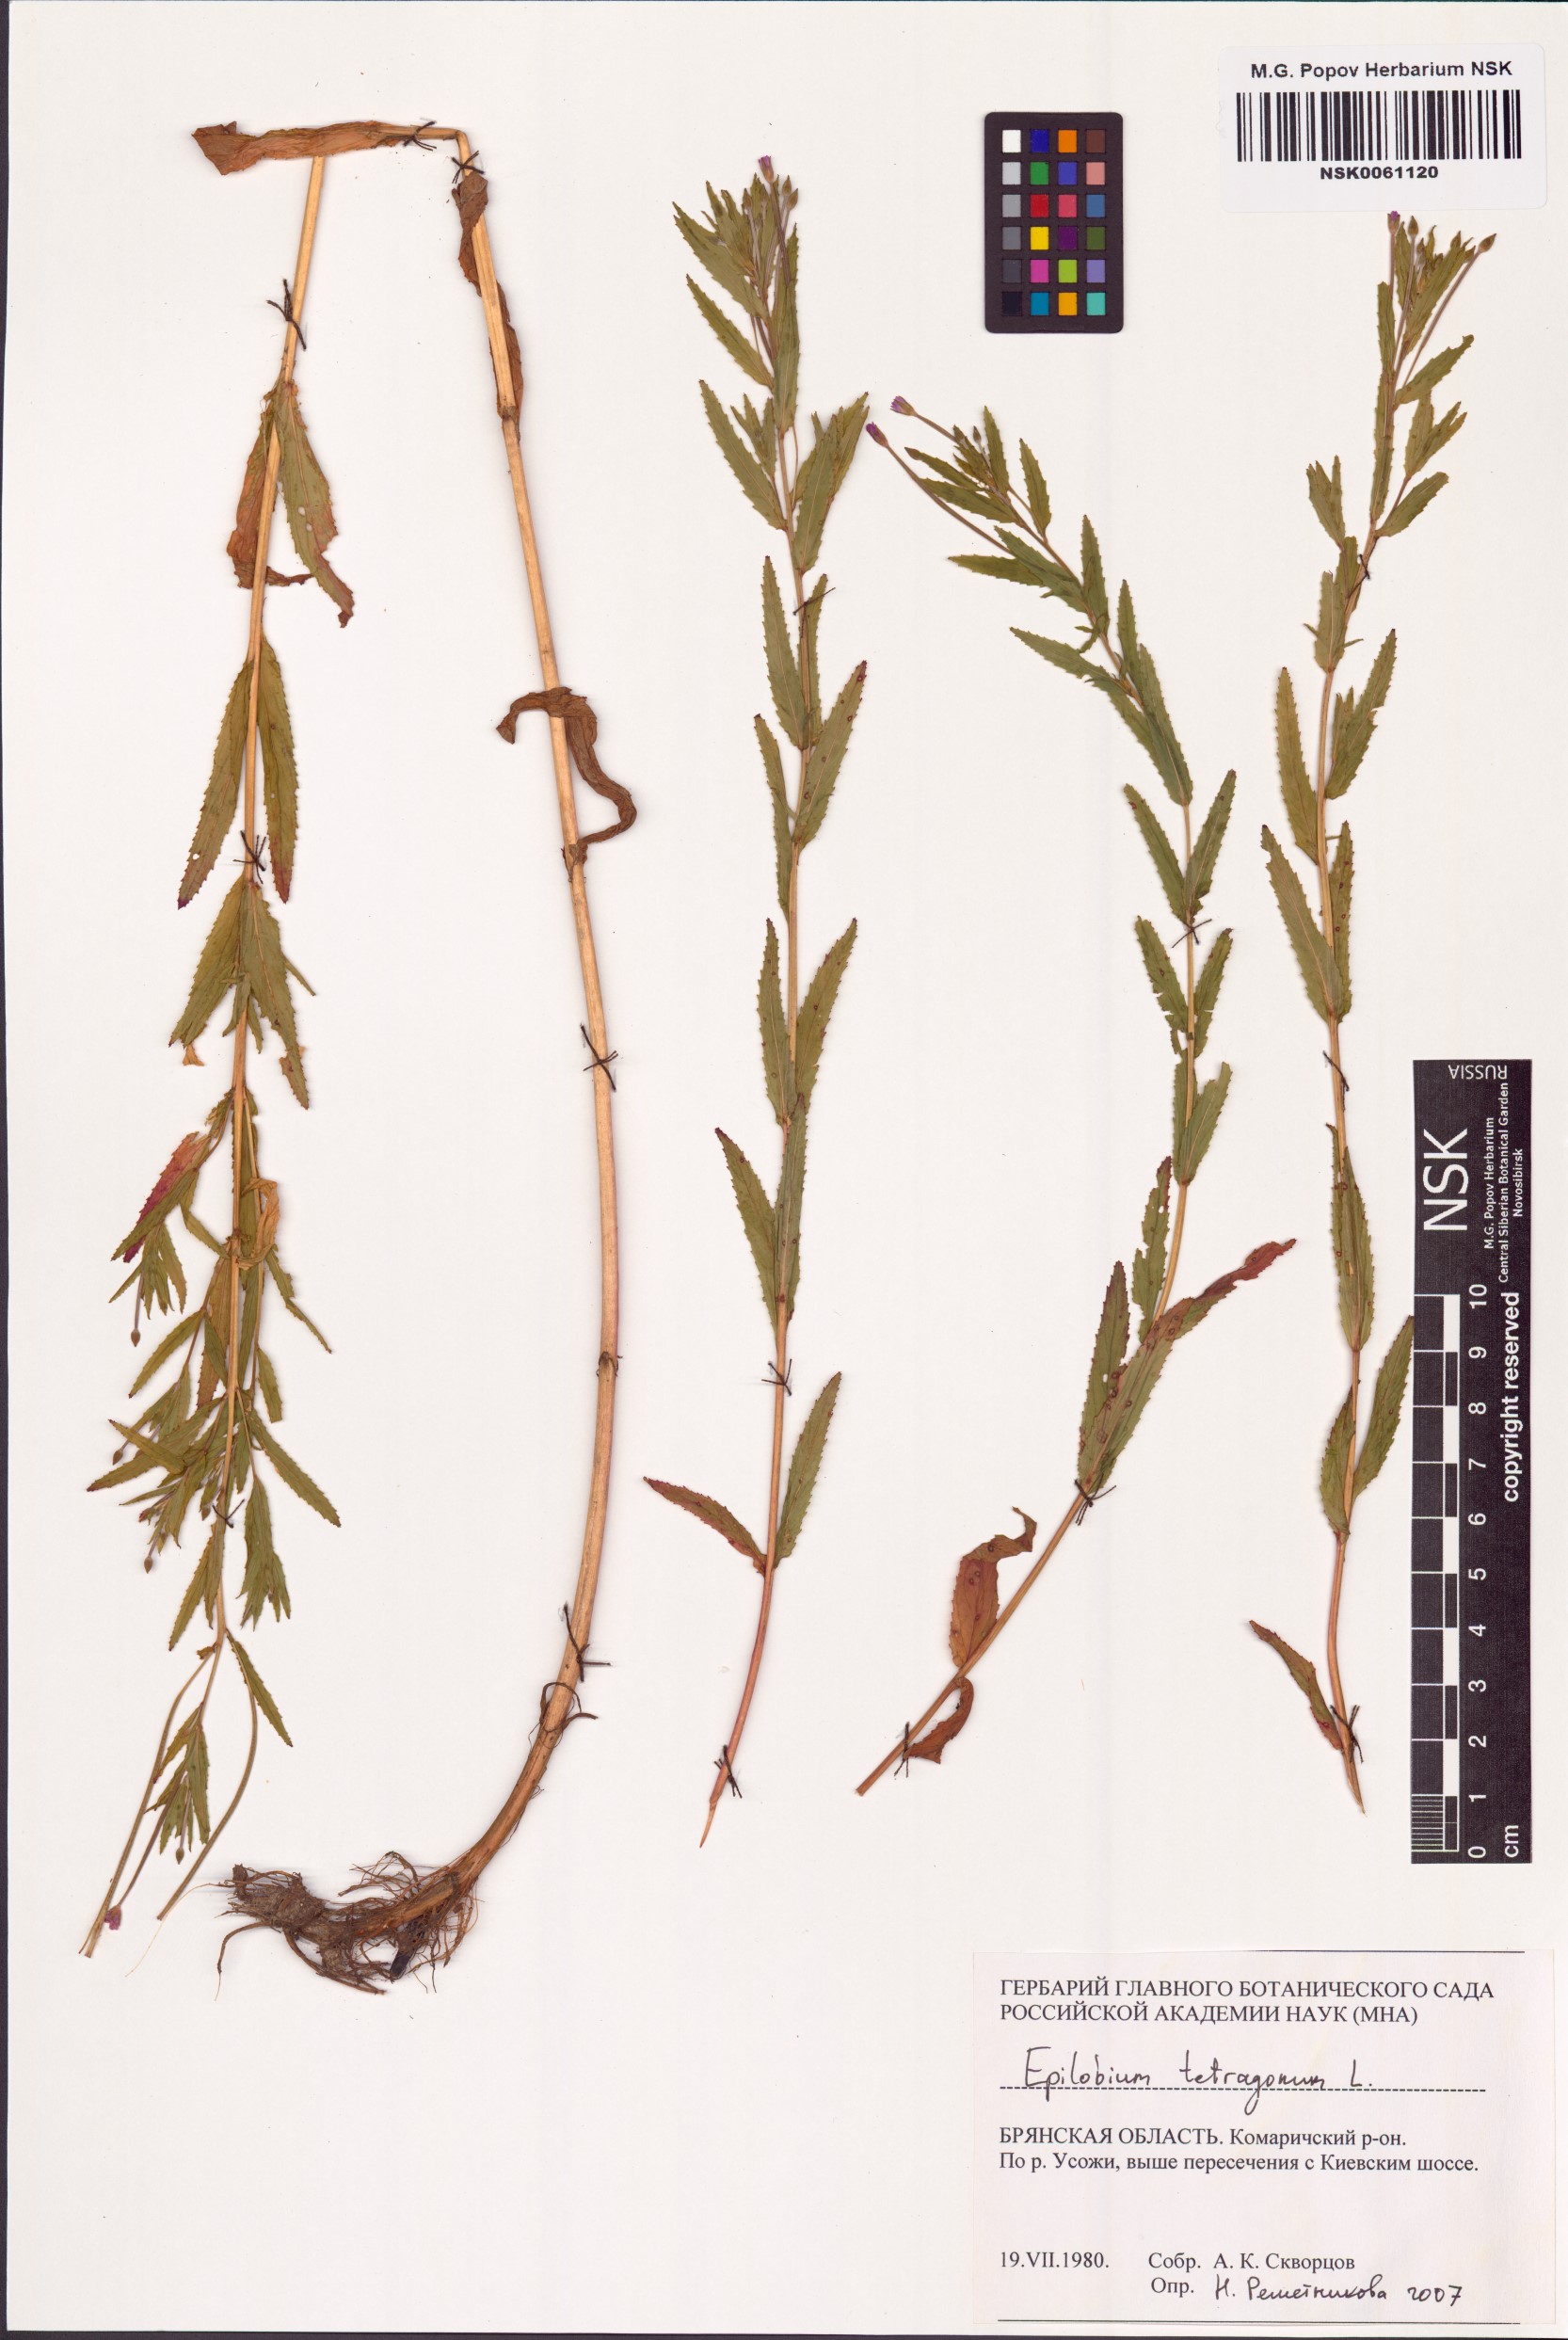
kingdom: Plantae
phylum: Tracheophyta
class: Magnoliopsida
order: Myrtales
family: Onagraceae
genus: Epilobium
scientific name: Epilobium tetragonum
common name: Square-stemmed willowherb
